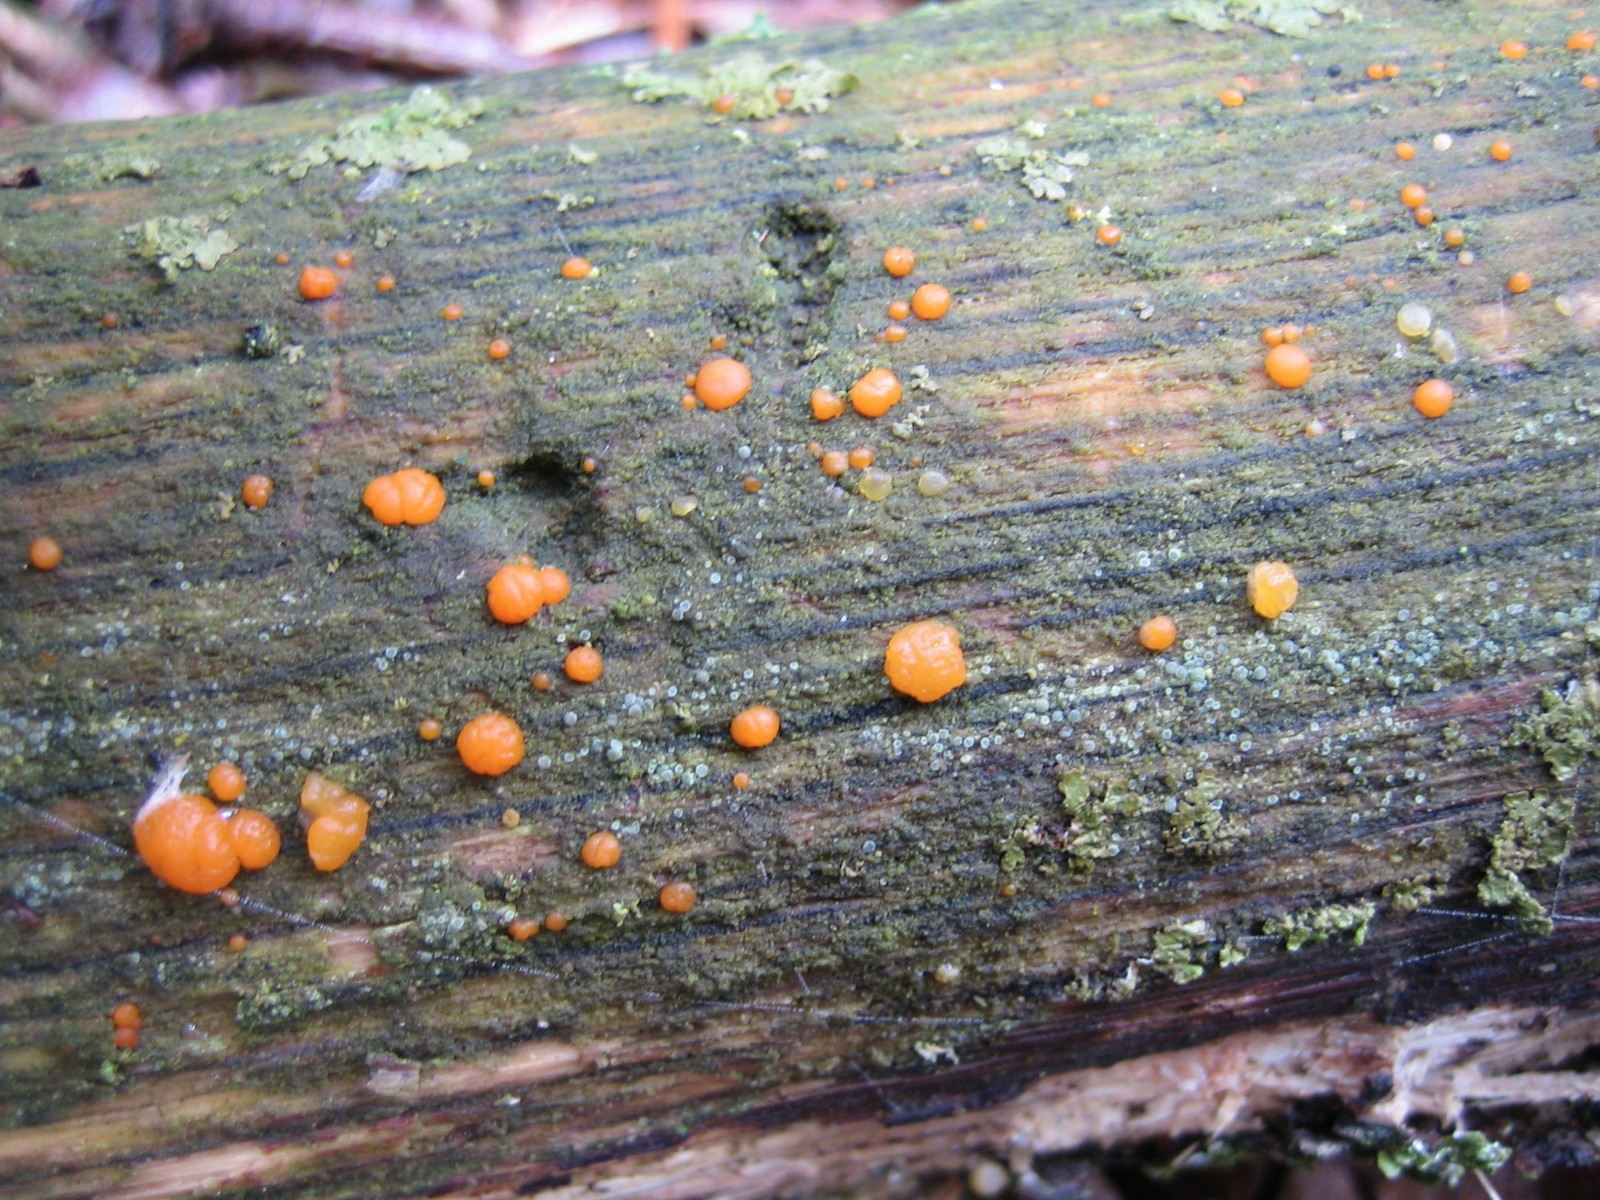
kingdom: Fungi
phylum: Basidiomycota
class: Dacrymycetes
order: Dacrymycetales
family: Dacrymycetaceae
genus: Dacrymyces
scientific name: Dacrymyces stillatus
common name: almindelig tåresvamp
